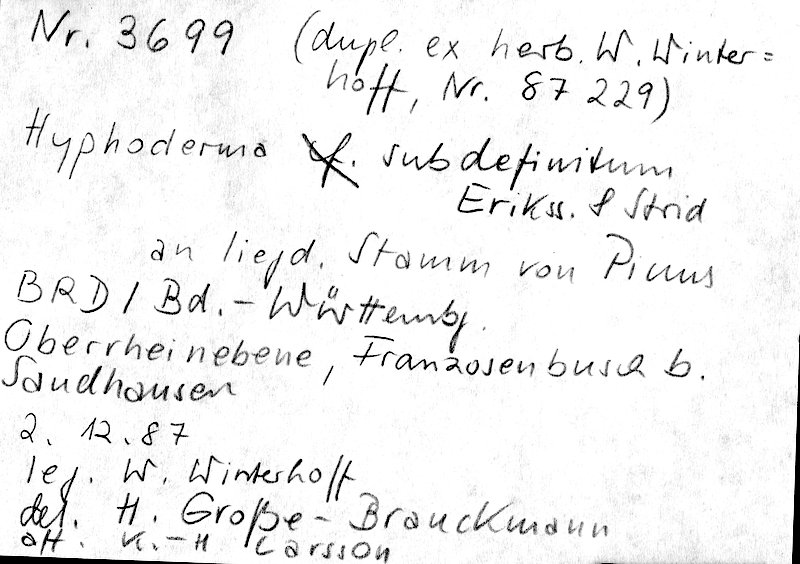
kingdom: Plantae
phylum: Tracheophyta
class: Pinopsida
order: Pinales
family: Pinaceae
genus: Pinus
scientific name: Pinus
